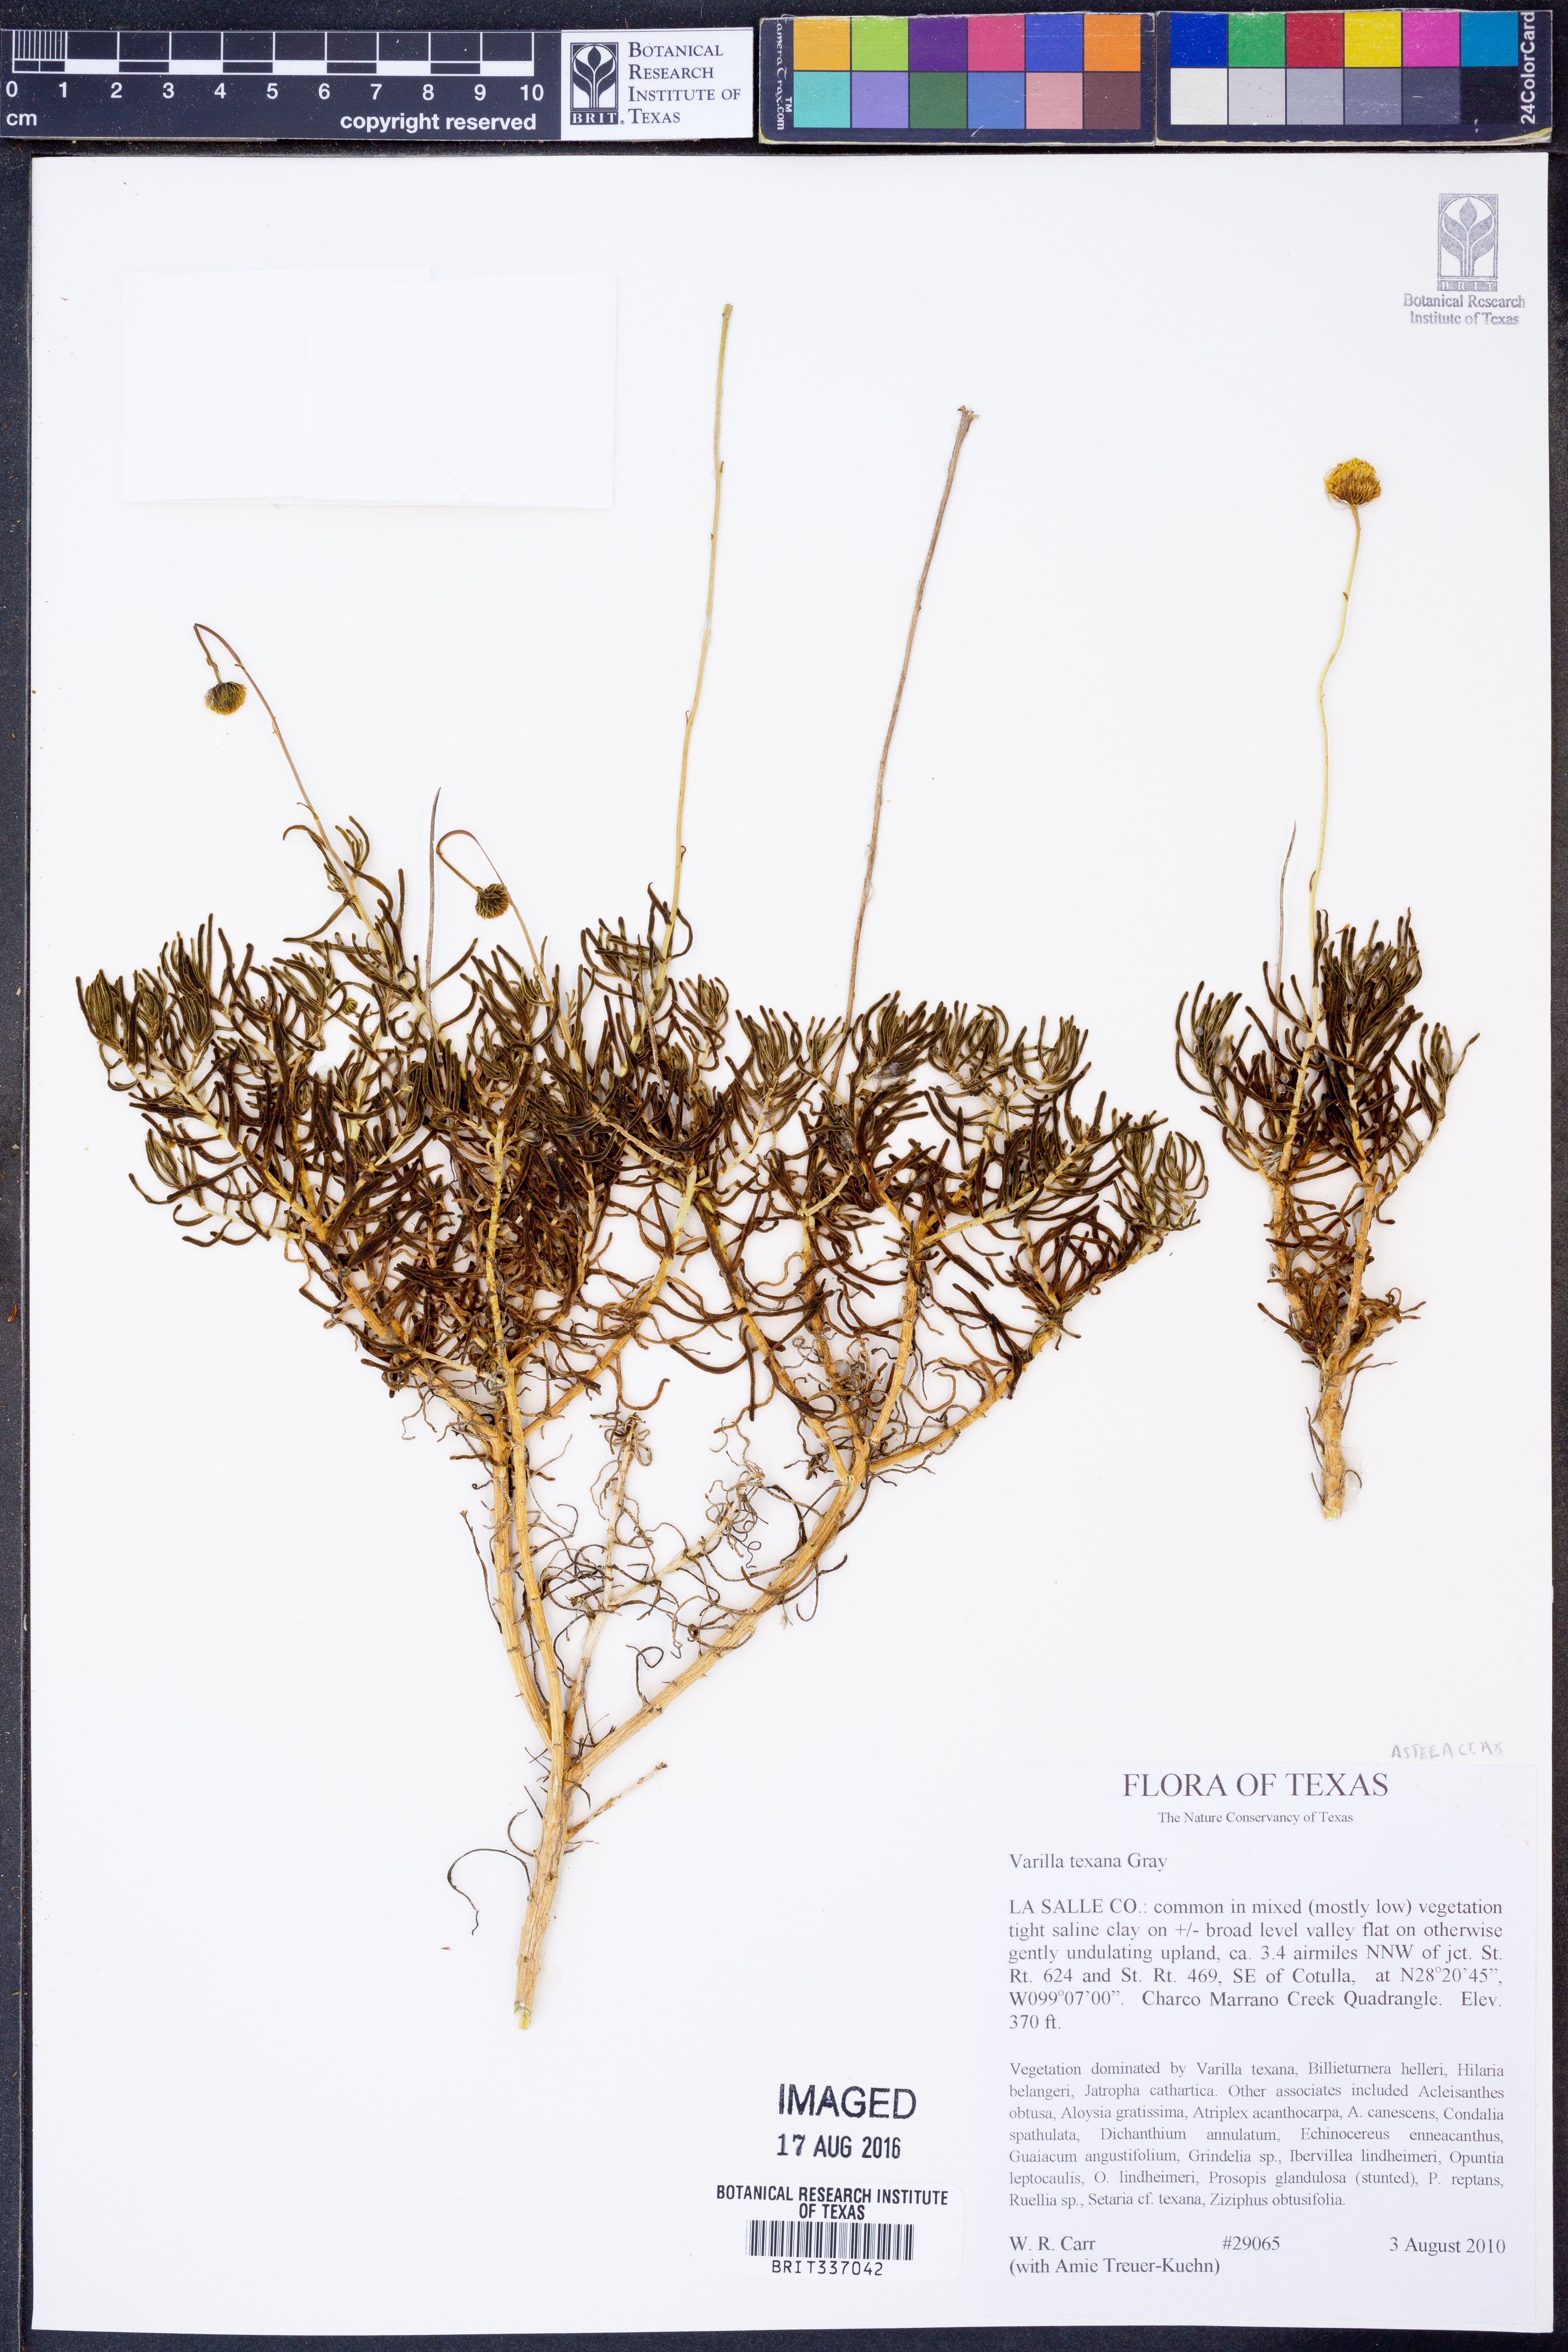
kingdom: Plantae
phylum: Tracheophyta
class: Magnoliopsida
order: Asterales
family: Asteraceae
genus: Varilla
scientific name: Varilla texana
